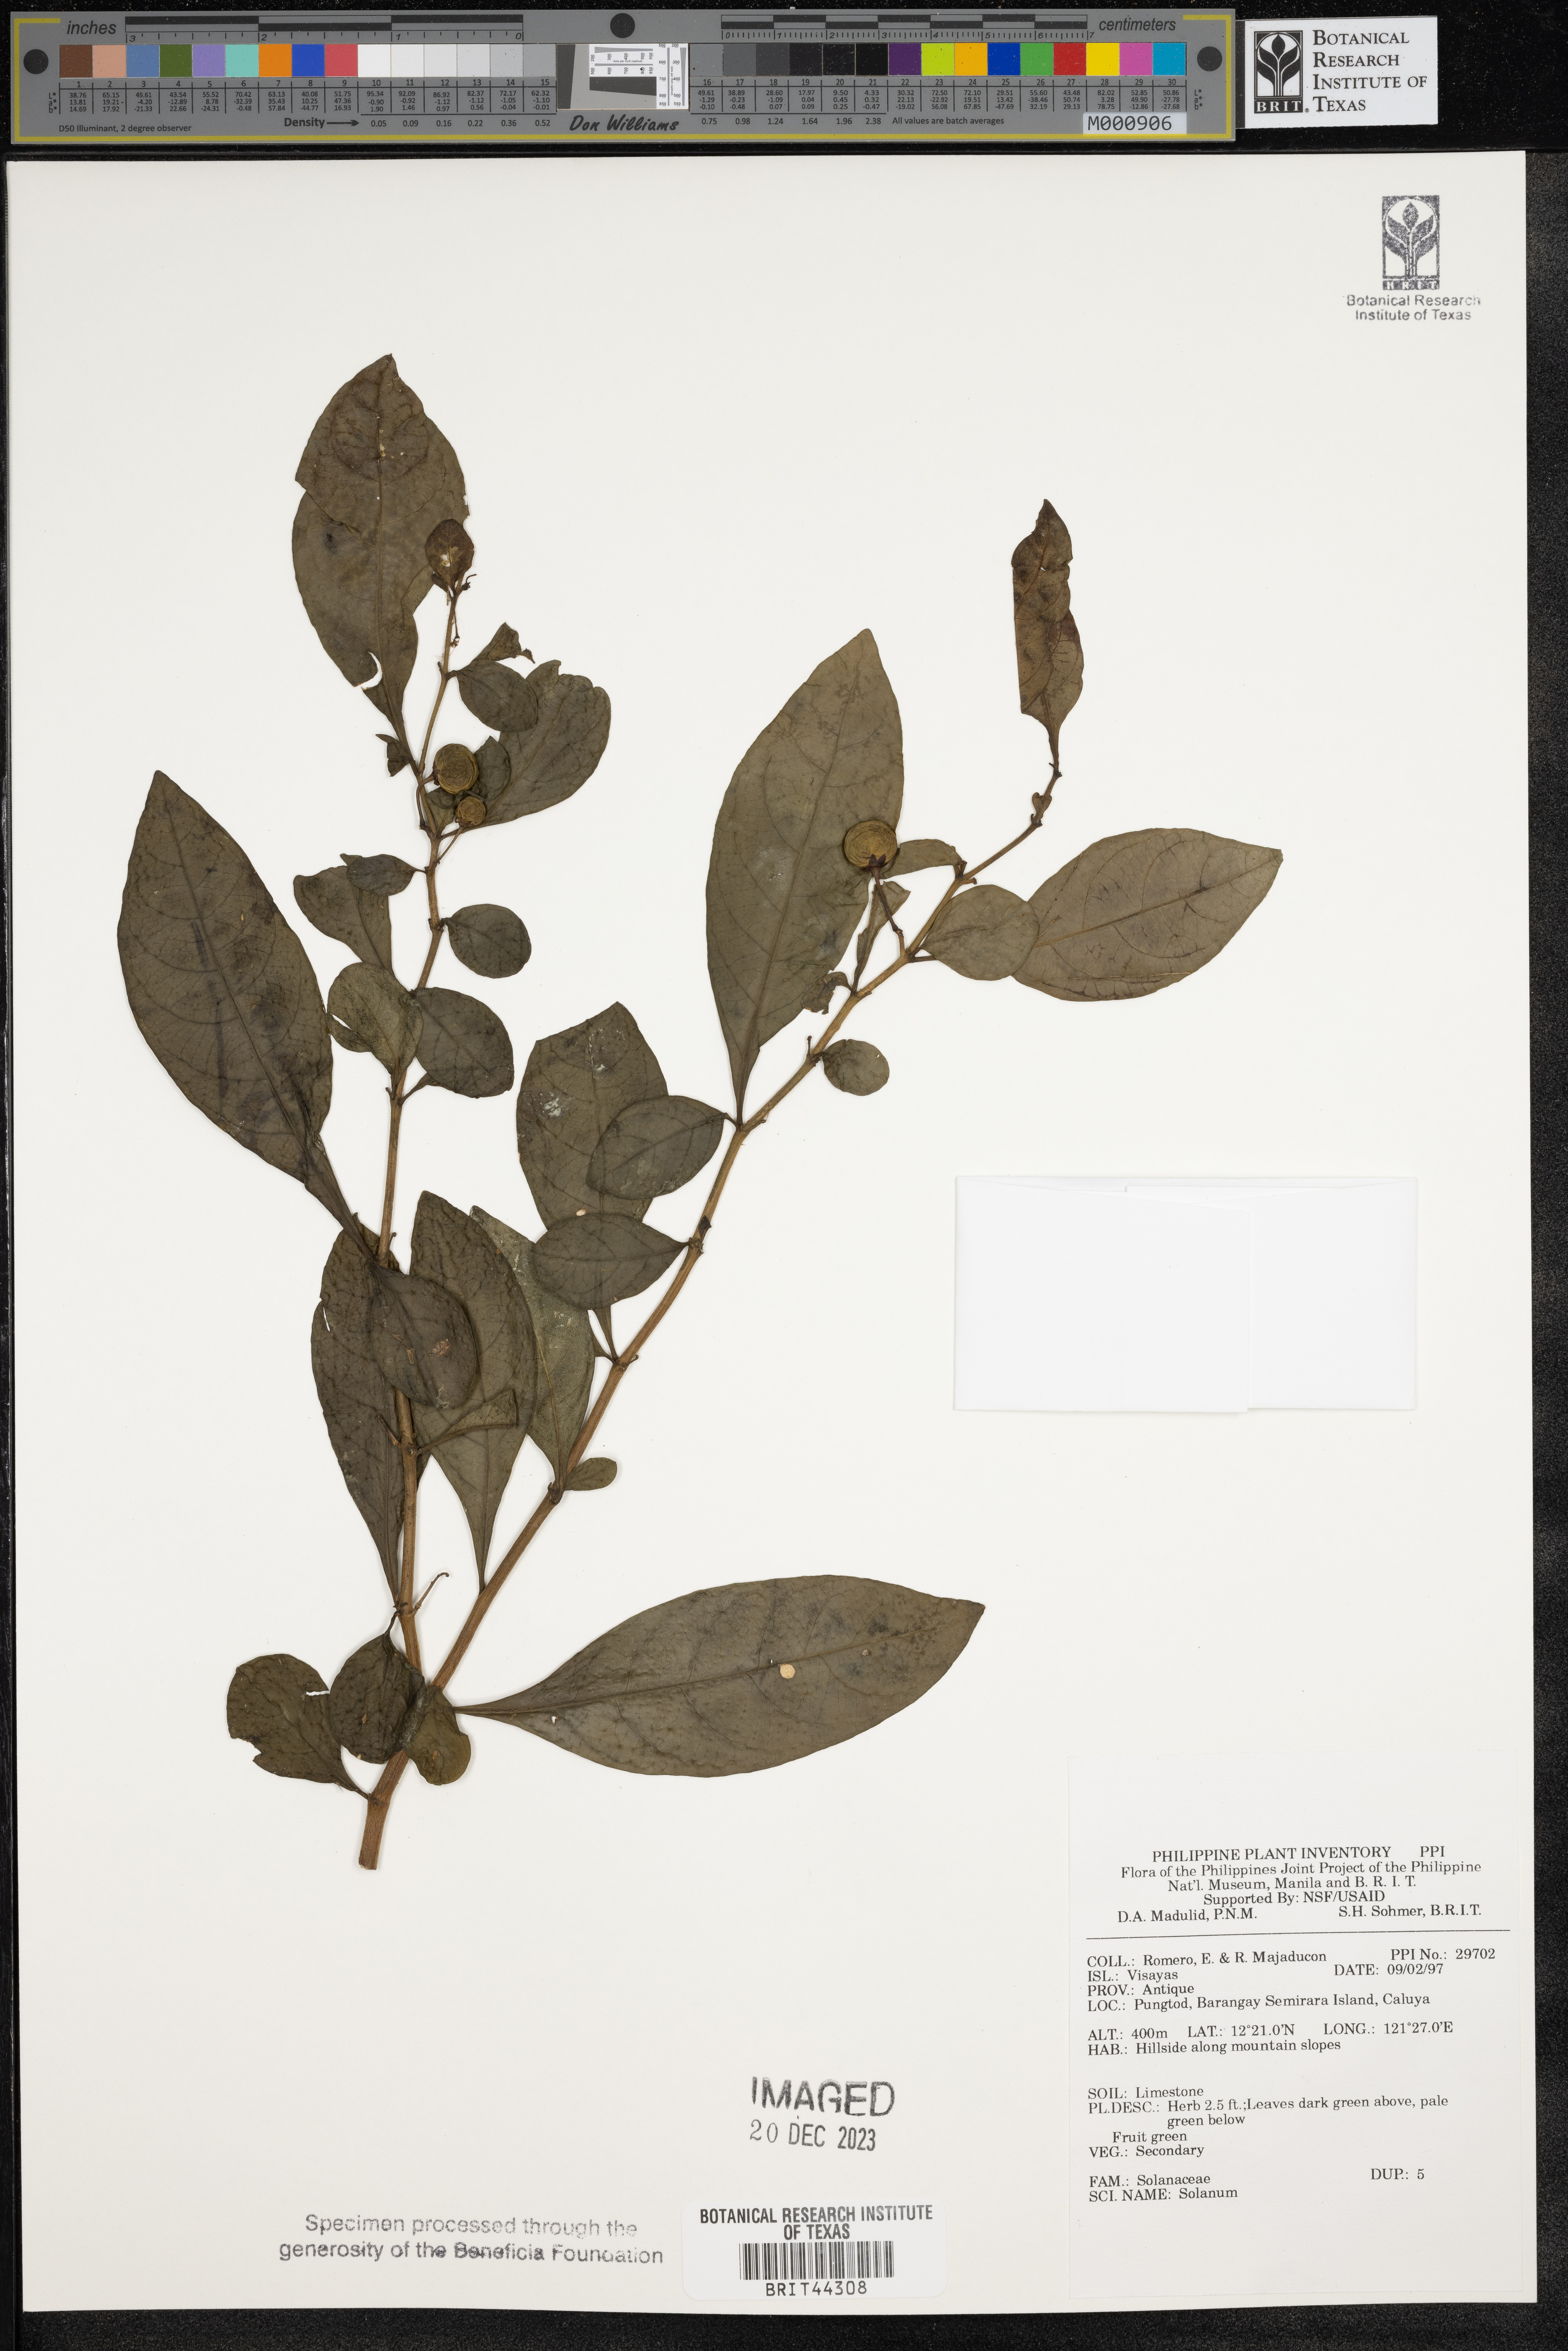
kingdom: Plantae
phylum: Tracheophyta
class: Magnoliopsida
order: Solanales
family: Solanaceae
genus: Solanum
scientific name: Solanum
